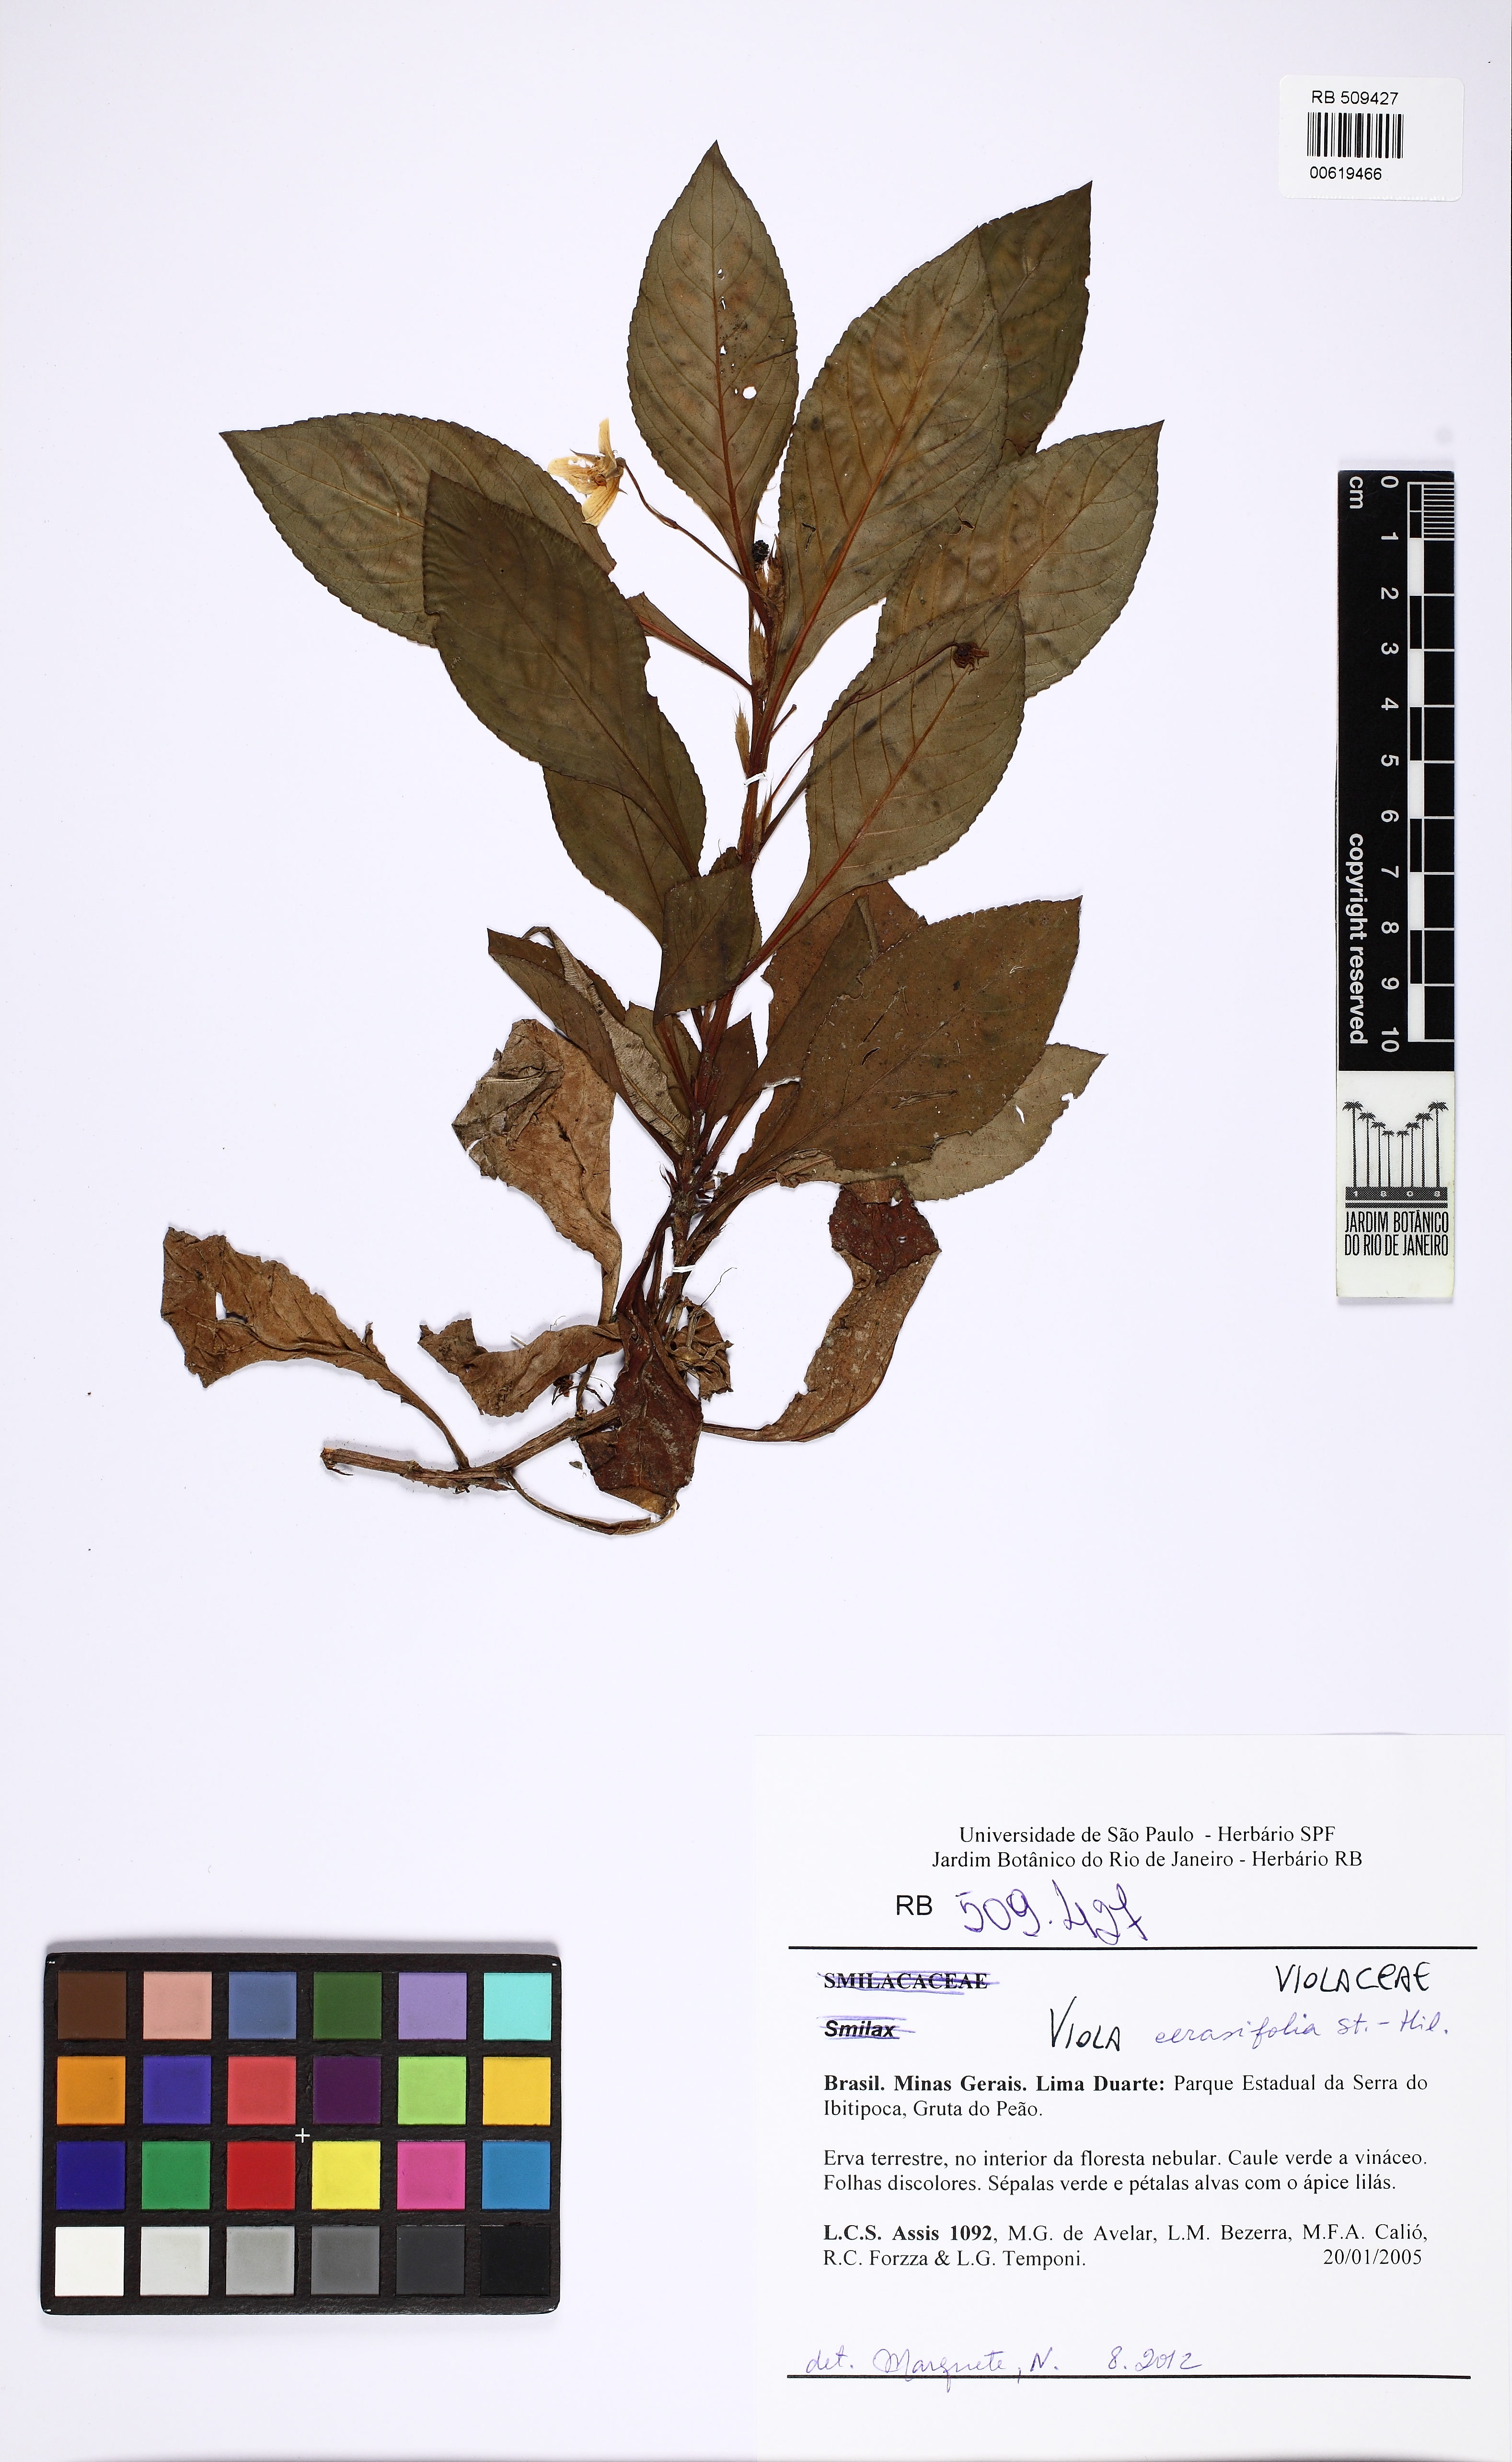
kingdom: Plantae
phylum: Tracheophyta
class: Magnoliopsida
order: Malpighiales
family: Violaceae
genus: Viola
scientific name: Viola
